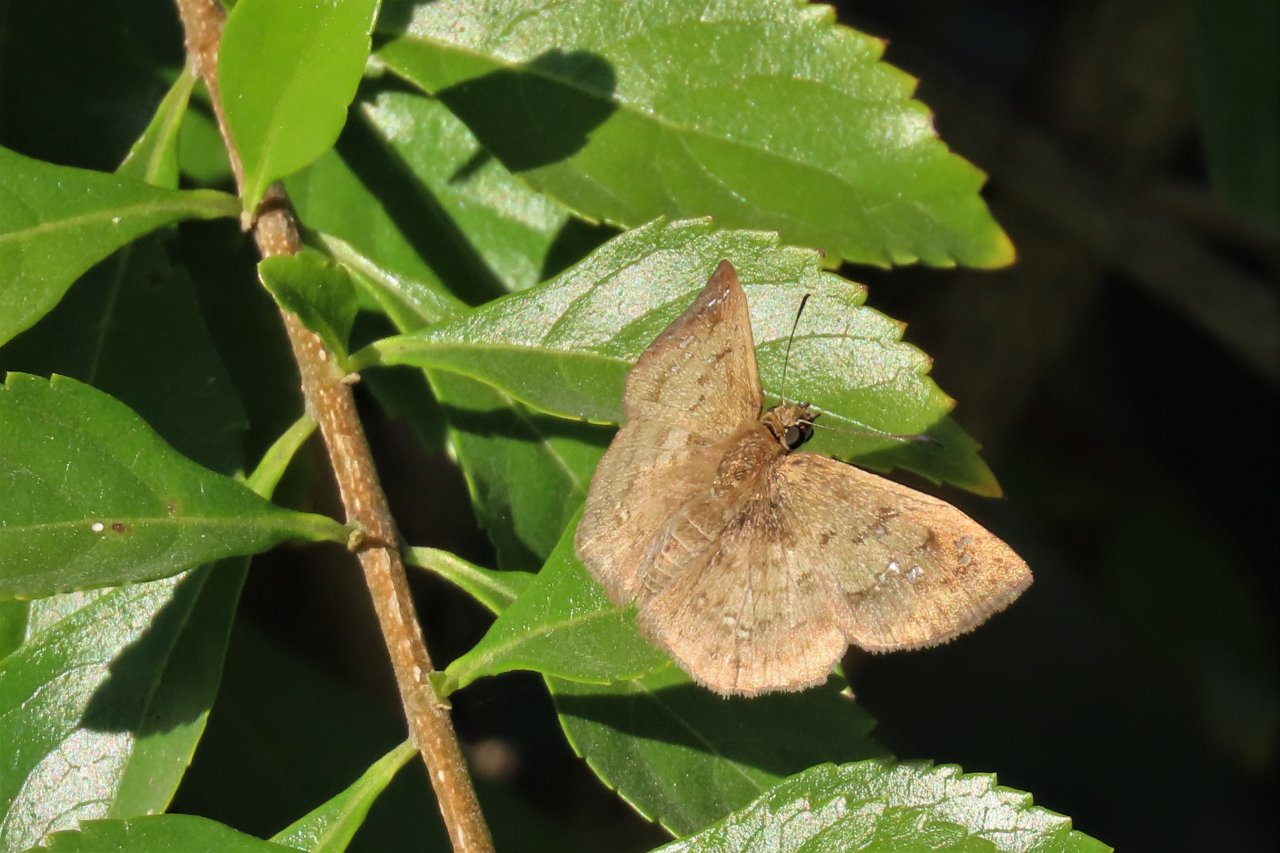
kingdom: Animalia
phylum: Arthropoda
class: Insecta
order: Lepidoptera
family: Hesperiidae
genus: Carrhenes
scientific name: Carrhenes canescens
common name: Hoary Skipper
